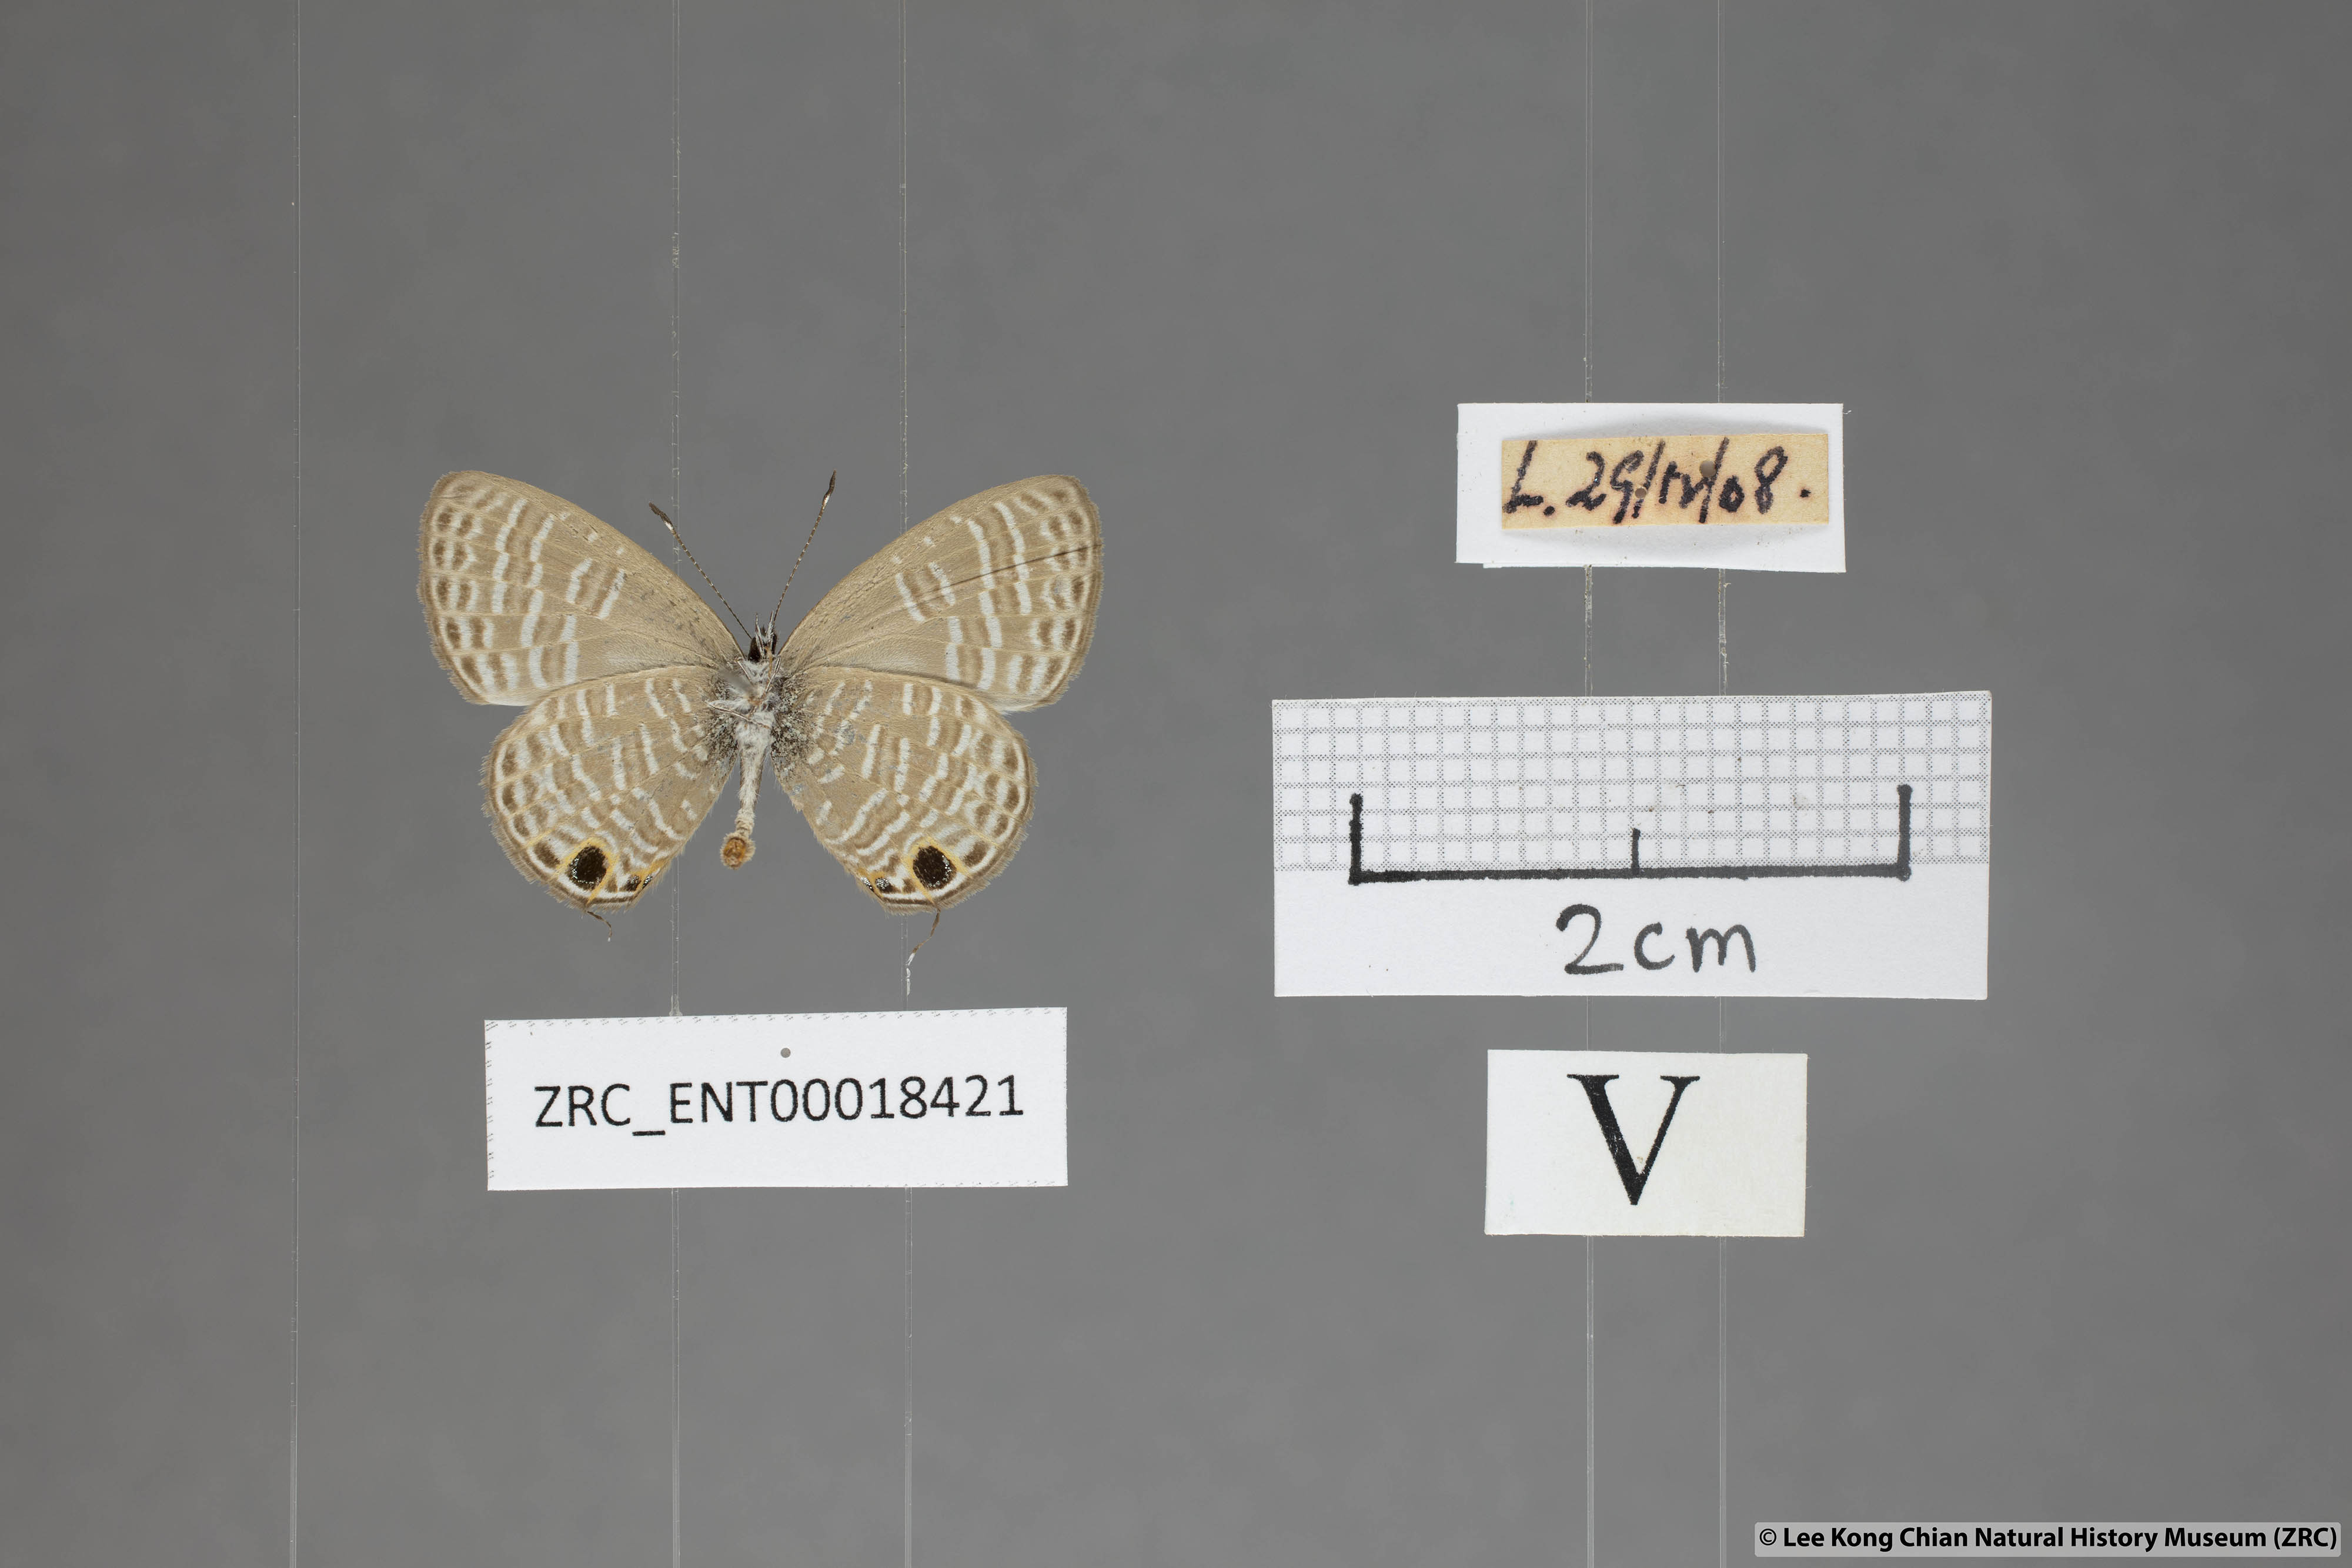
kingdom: Animalia
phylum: Arthropoda
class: Insecta
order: Lepidoptera
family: Lycaenidae
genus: Nacaduba
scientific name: Nacaduba pavana
